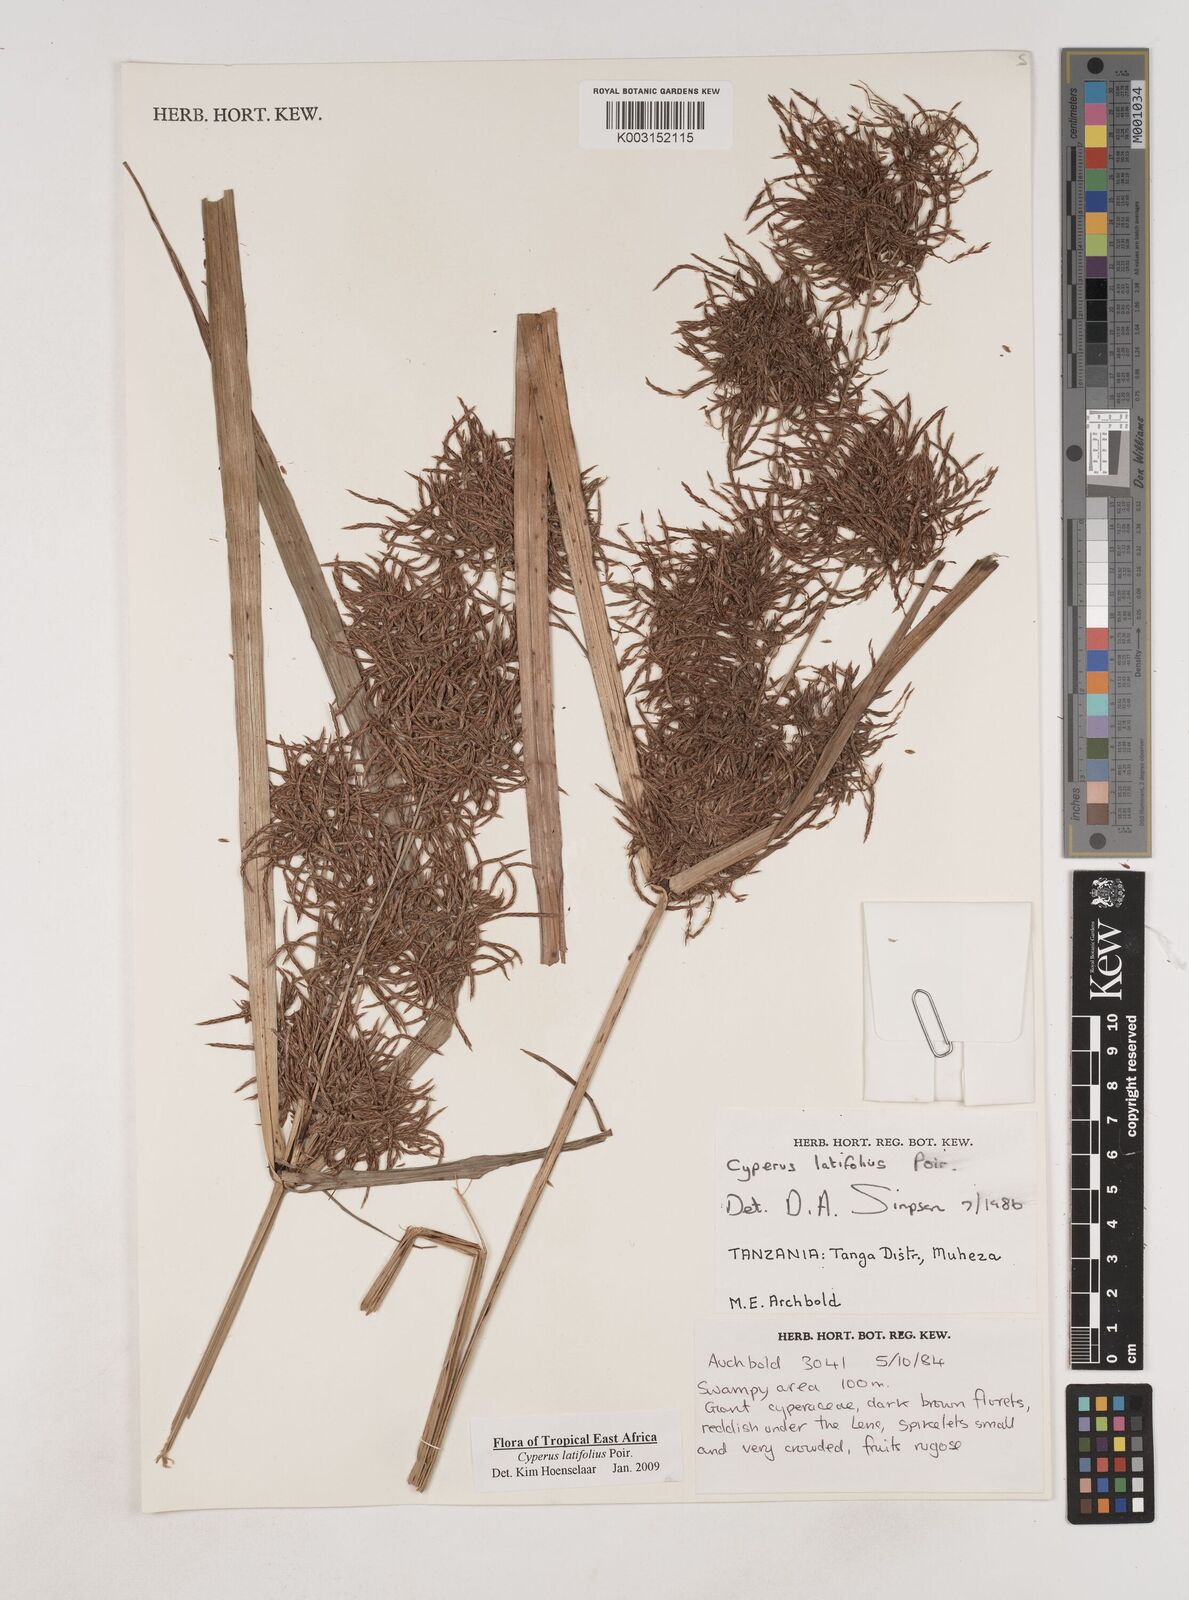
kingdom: Plantae
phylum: Tracheophyta
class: Liliopsida
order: Poales
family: Cyperaceae
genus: Cyperus
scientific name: Cyperus latifolius
